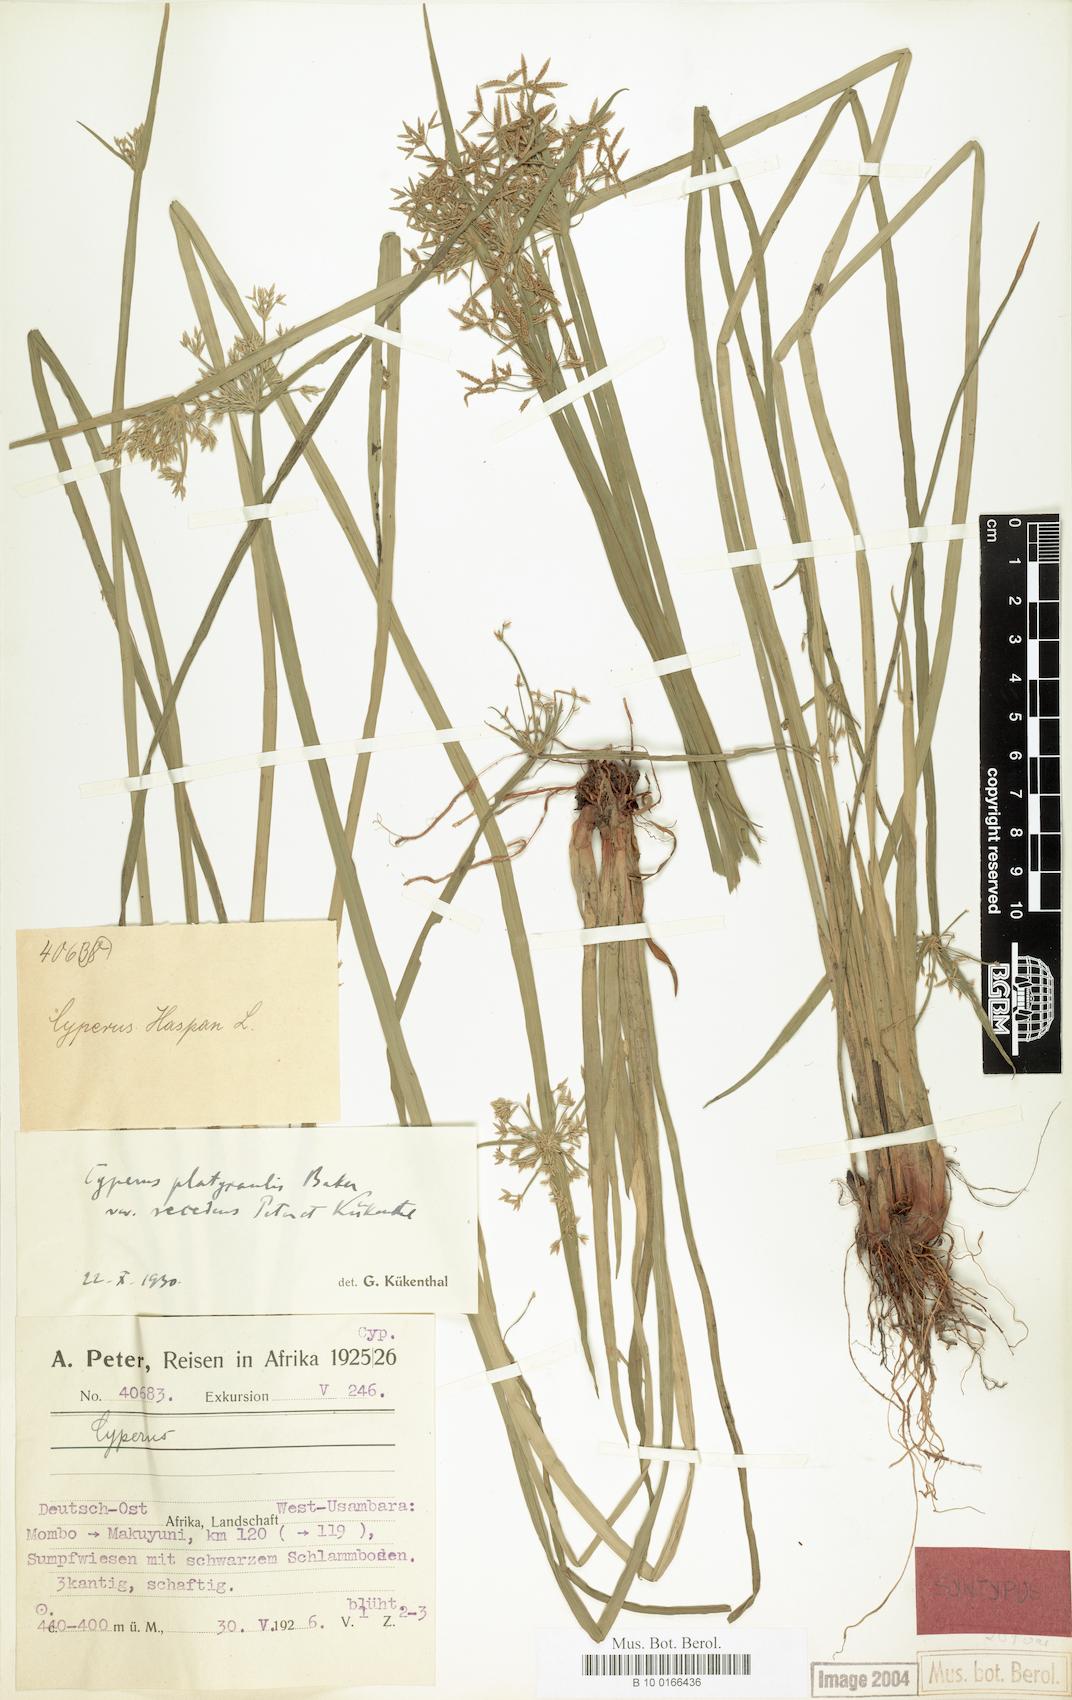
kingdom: Plantae
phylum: Tracheophyta
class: Liliopsida
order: Poales
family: Cyperaceae
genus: Cyperus
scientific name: Cyperus denudatus
